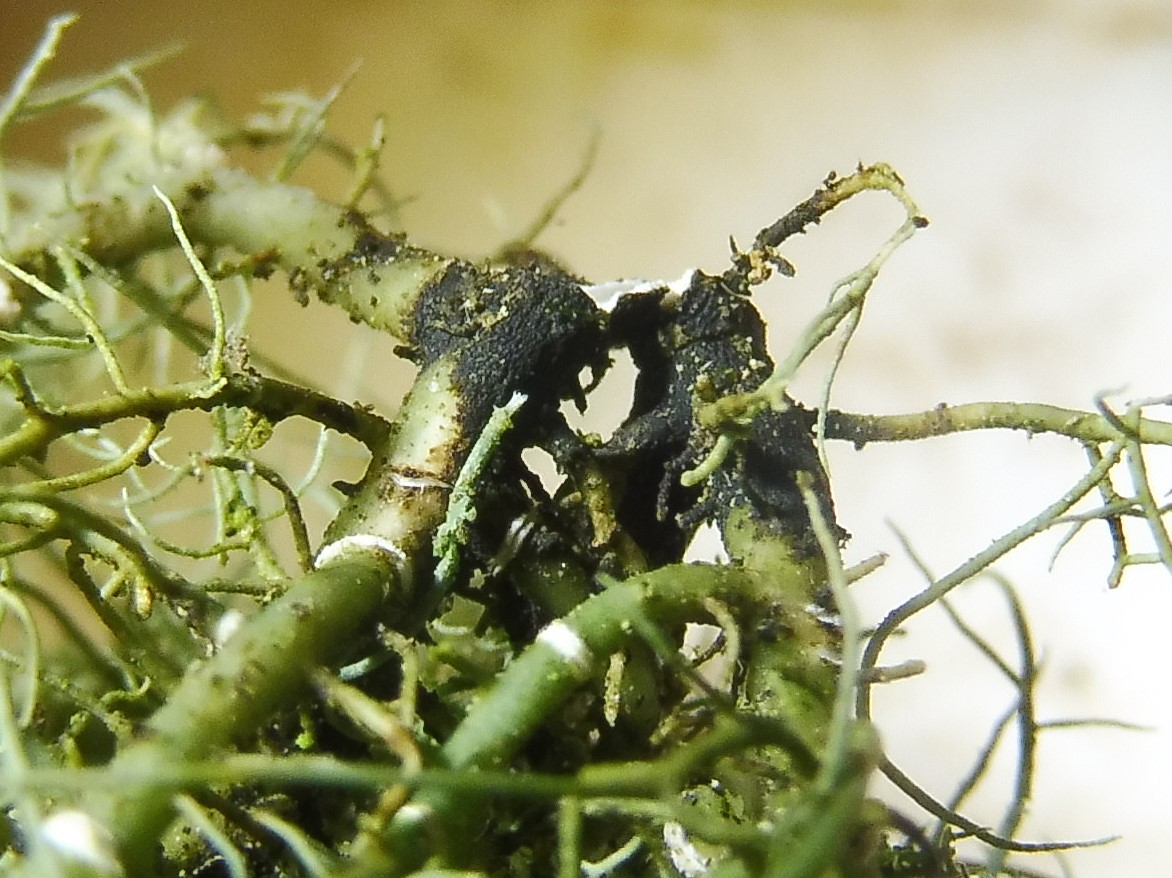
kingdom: Fungi
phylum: Ascomycota
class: Lecanoromycetes
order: Lecanorales
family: Parmeliaceae
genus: Usnea
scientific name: Usnea subfloridana
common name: busket skæglav
